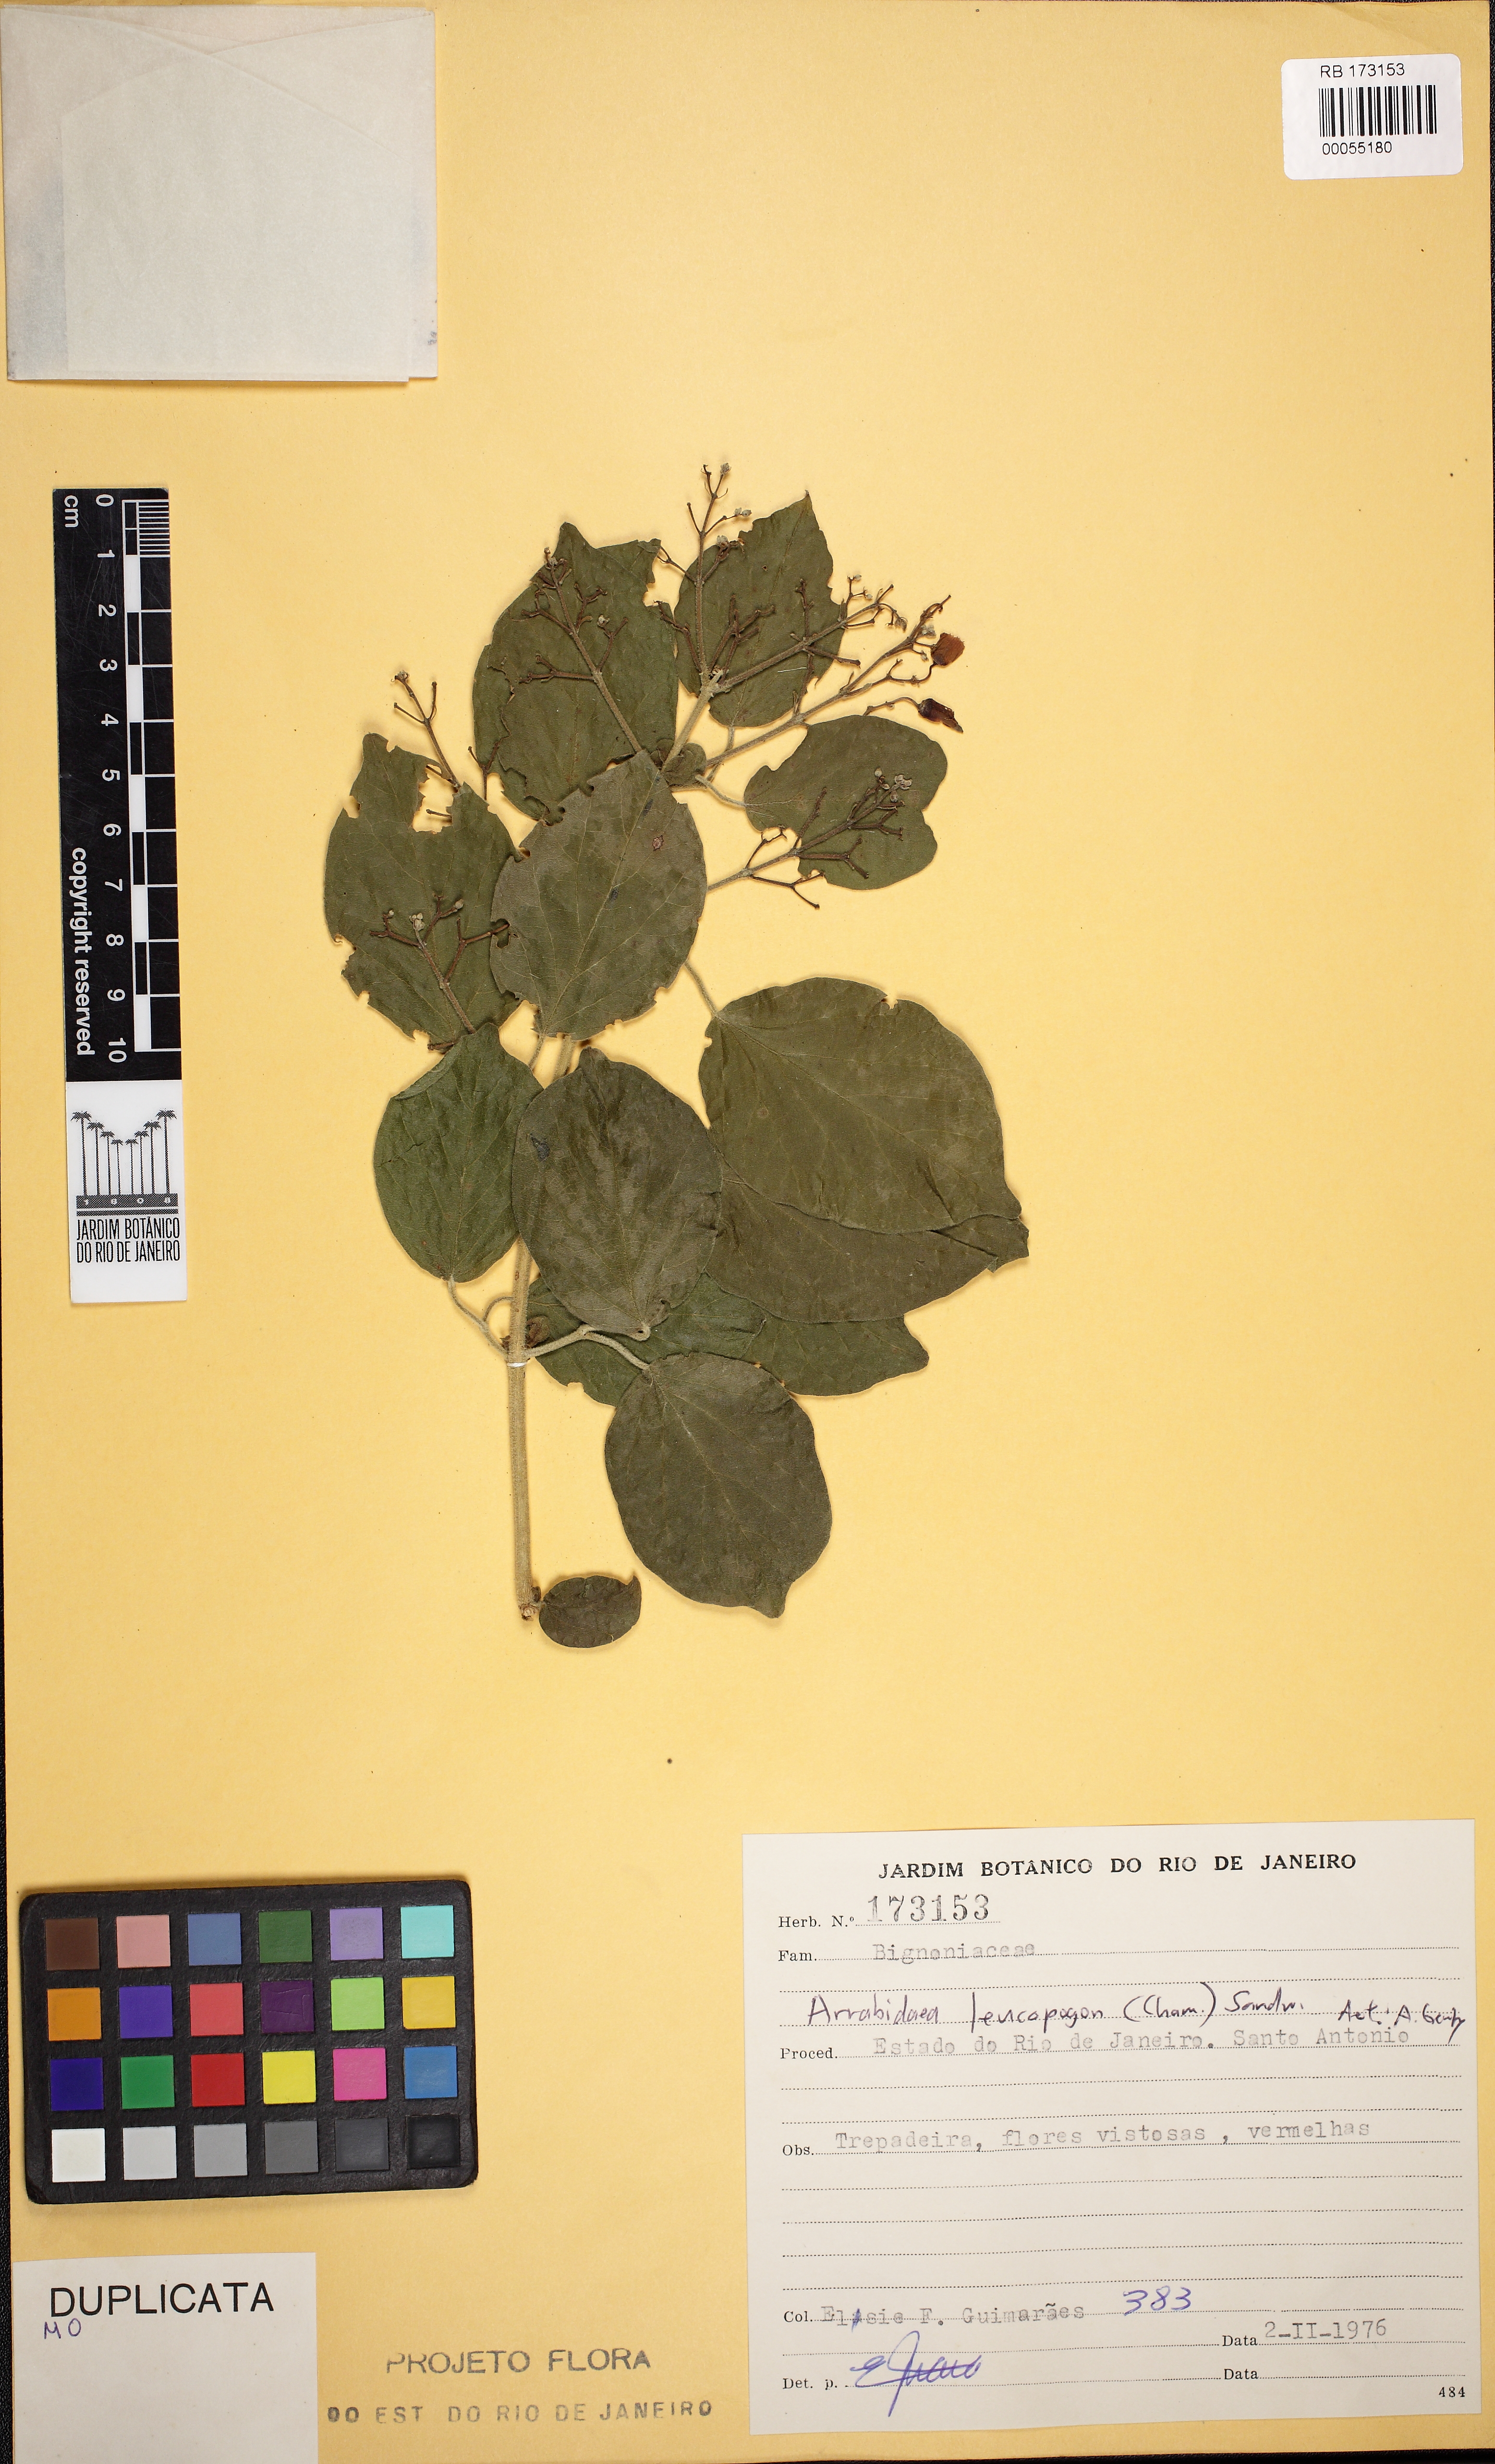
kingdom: Plantae
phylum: Tracheophyta
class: Magnoliopsida
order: Lamiales
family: Bignoniaceae
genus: Fridericia
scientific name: Fridericia leucopogon
